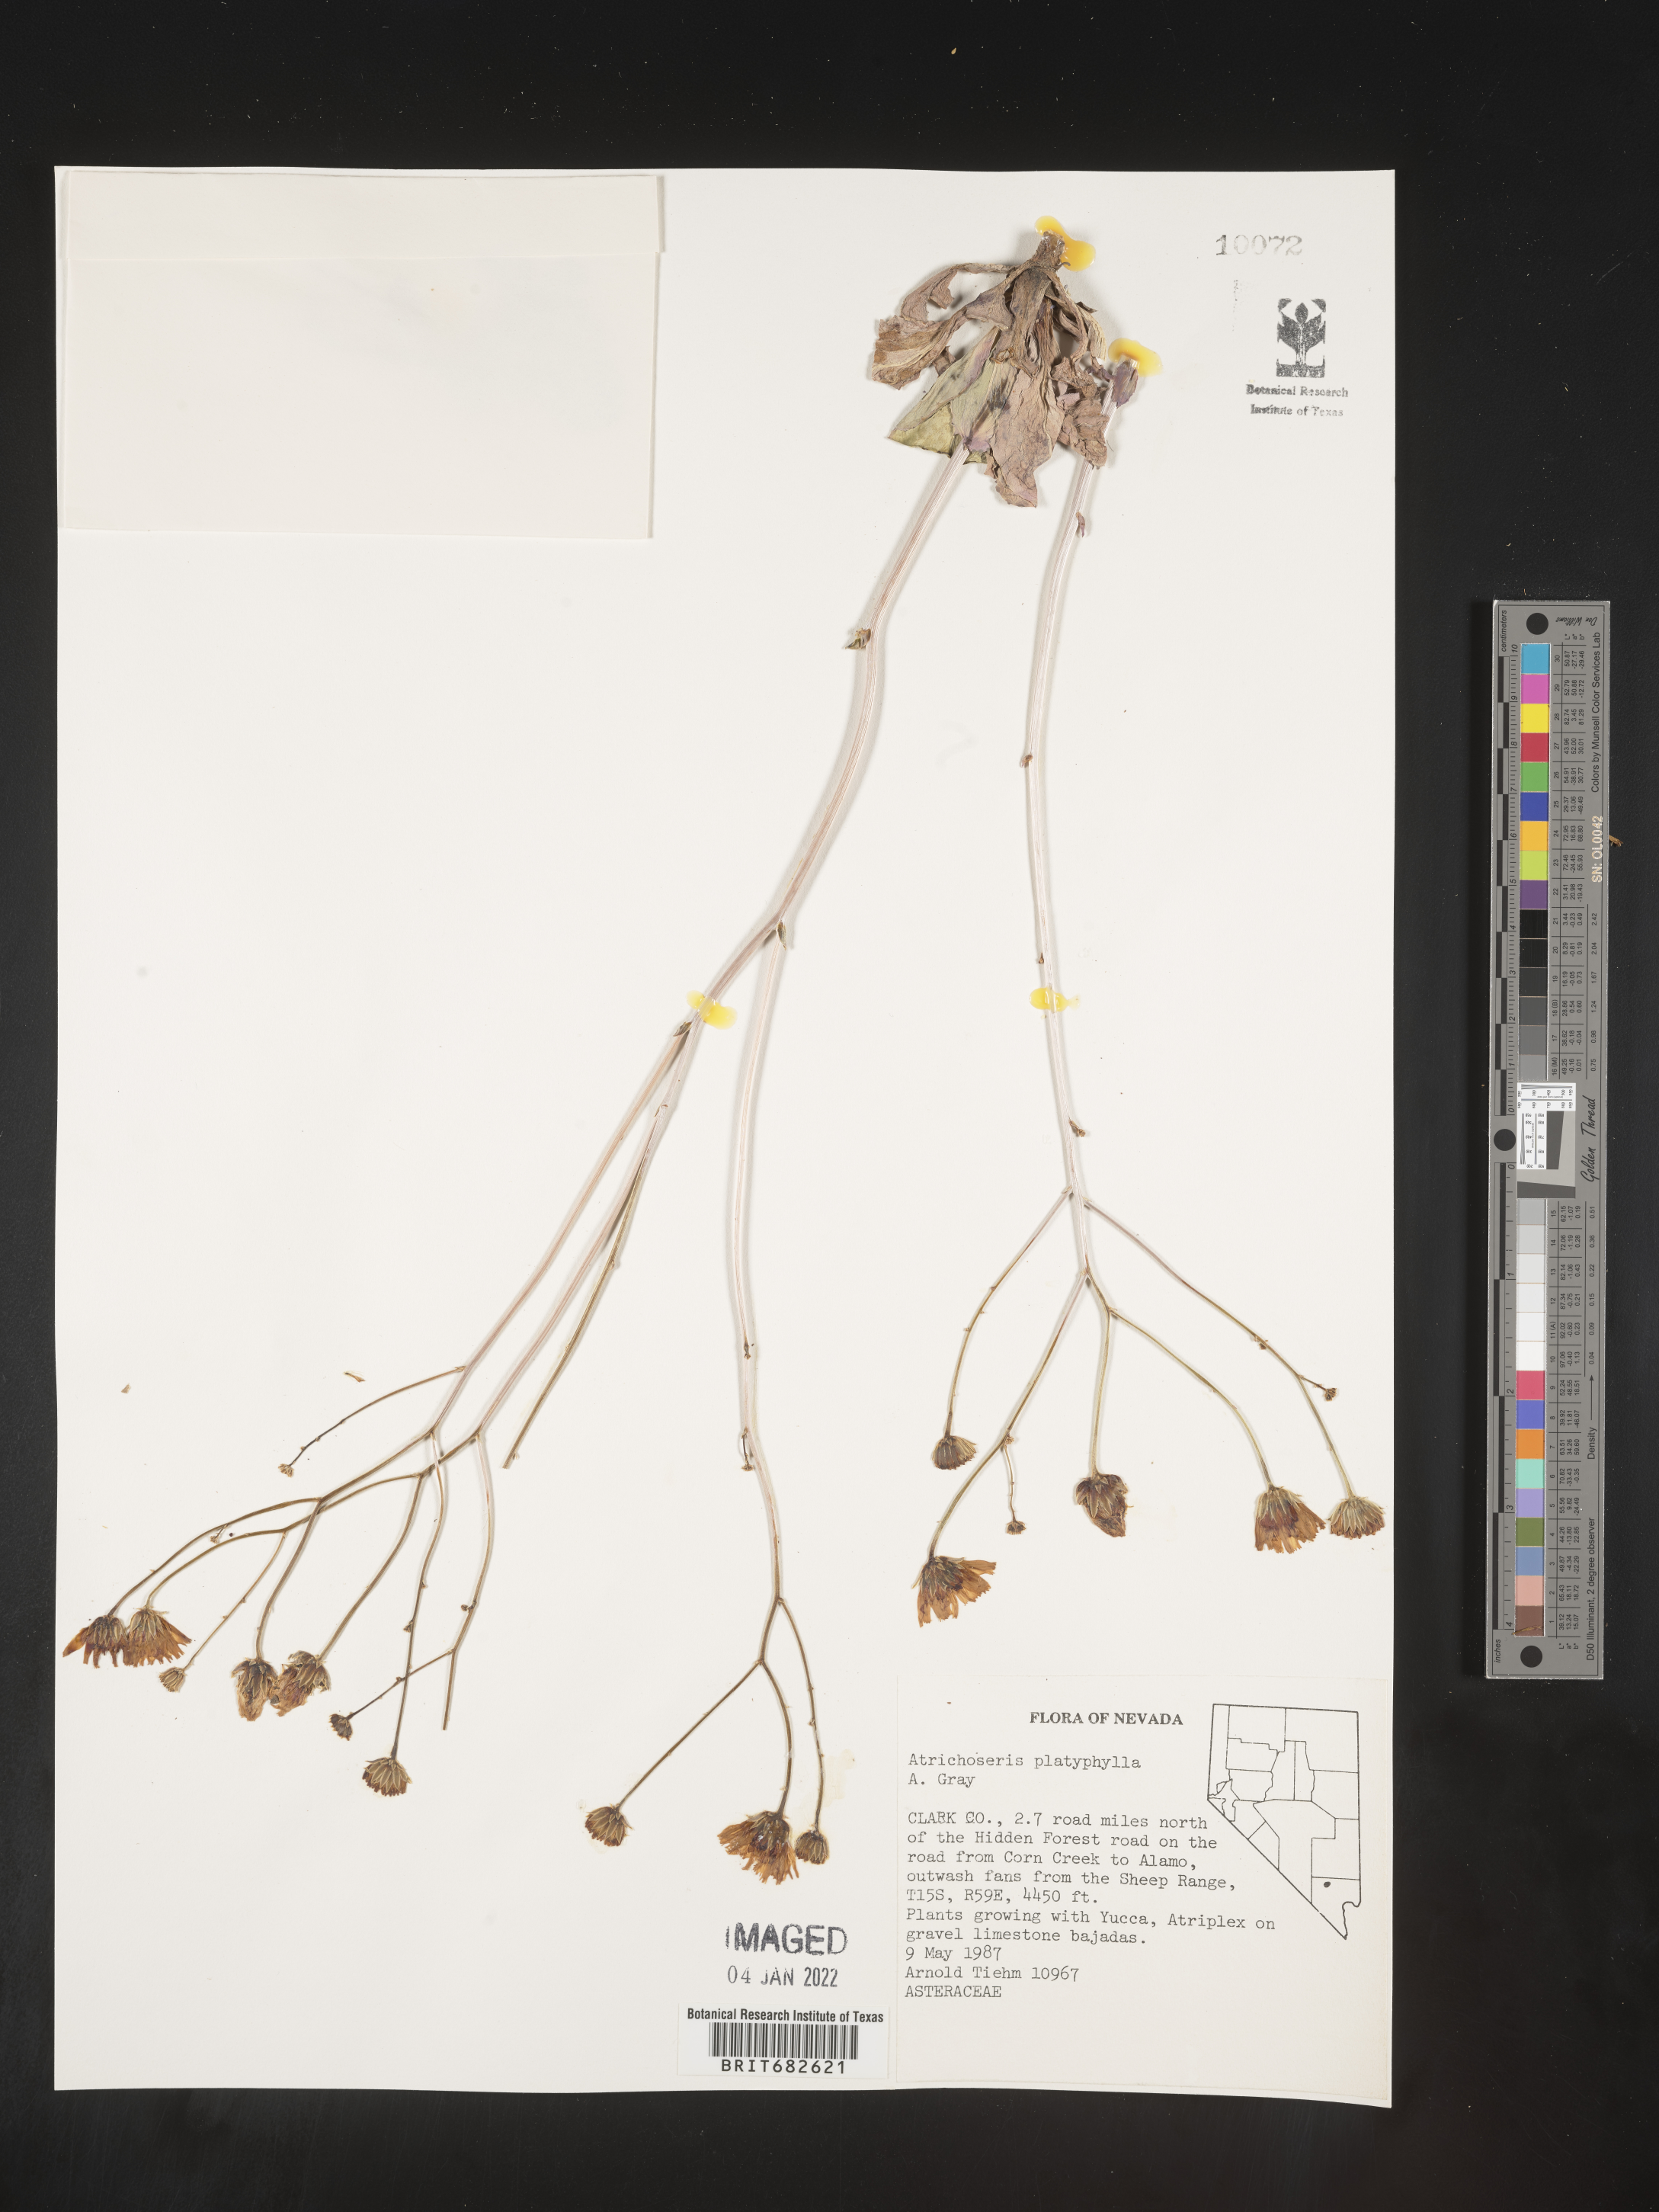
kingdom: Plantae
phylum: Tracheophyta
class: Magnoliopsida
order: Asterales
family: Asteraceae
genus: Atrichoseris
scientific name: Atrichoseris
